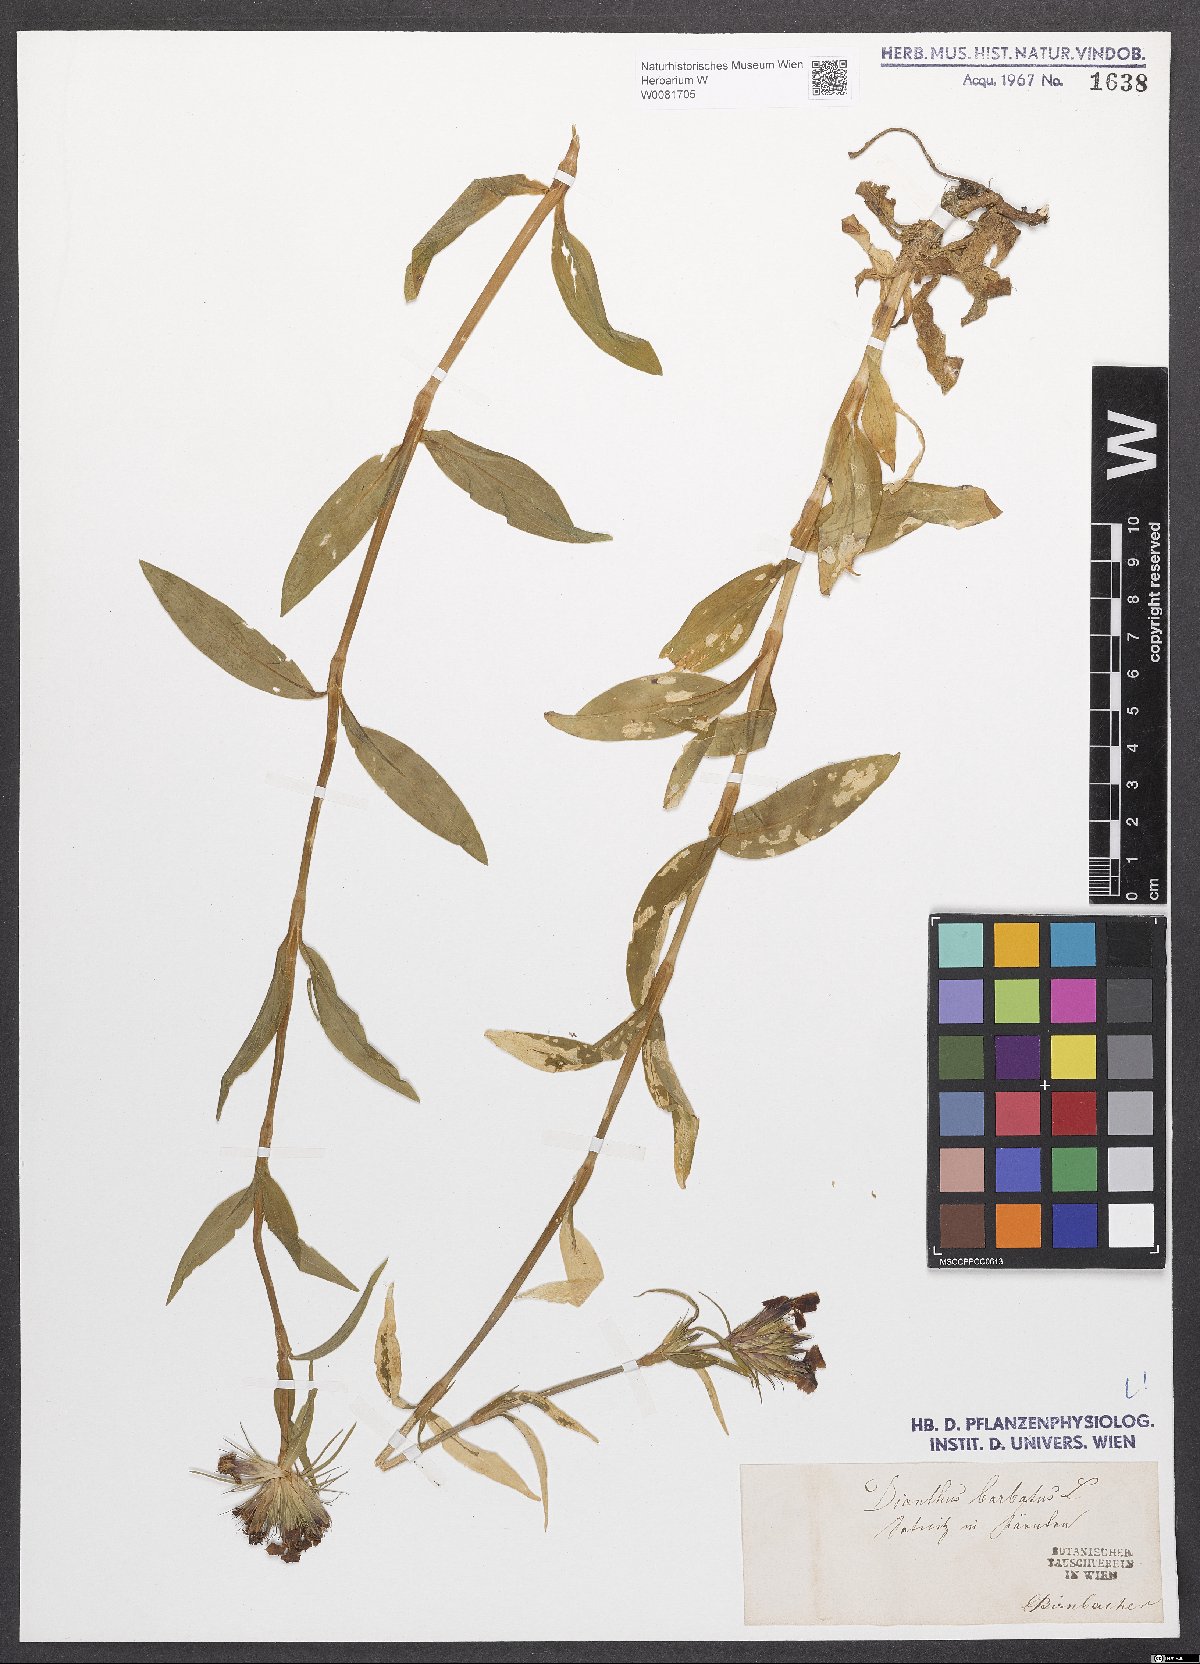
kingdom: Plantae
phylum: Tracheophyta
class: Magnoliopsida
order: Caryophyllales
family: Caryophyllaceae
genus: Dianthus
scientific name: Dianthus barbatus
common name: Sweet-william
